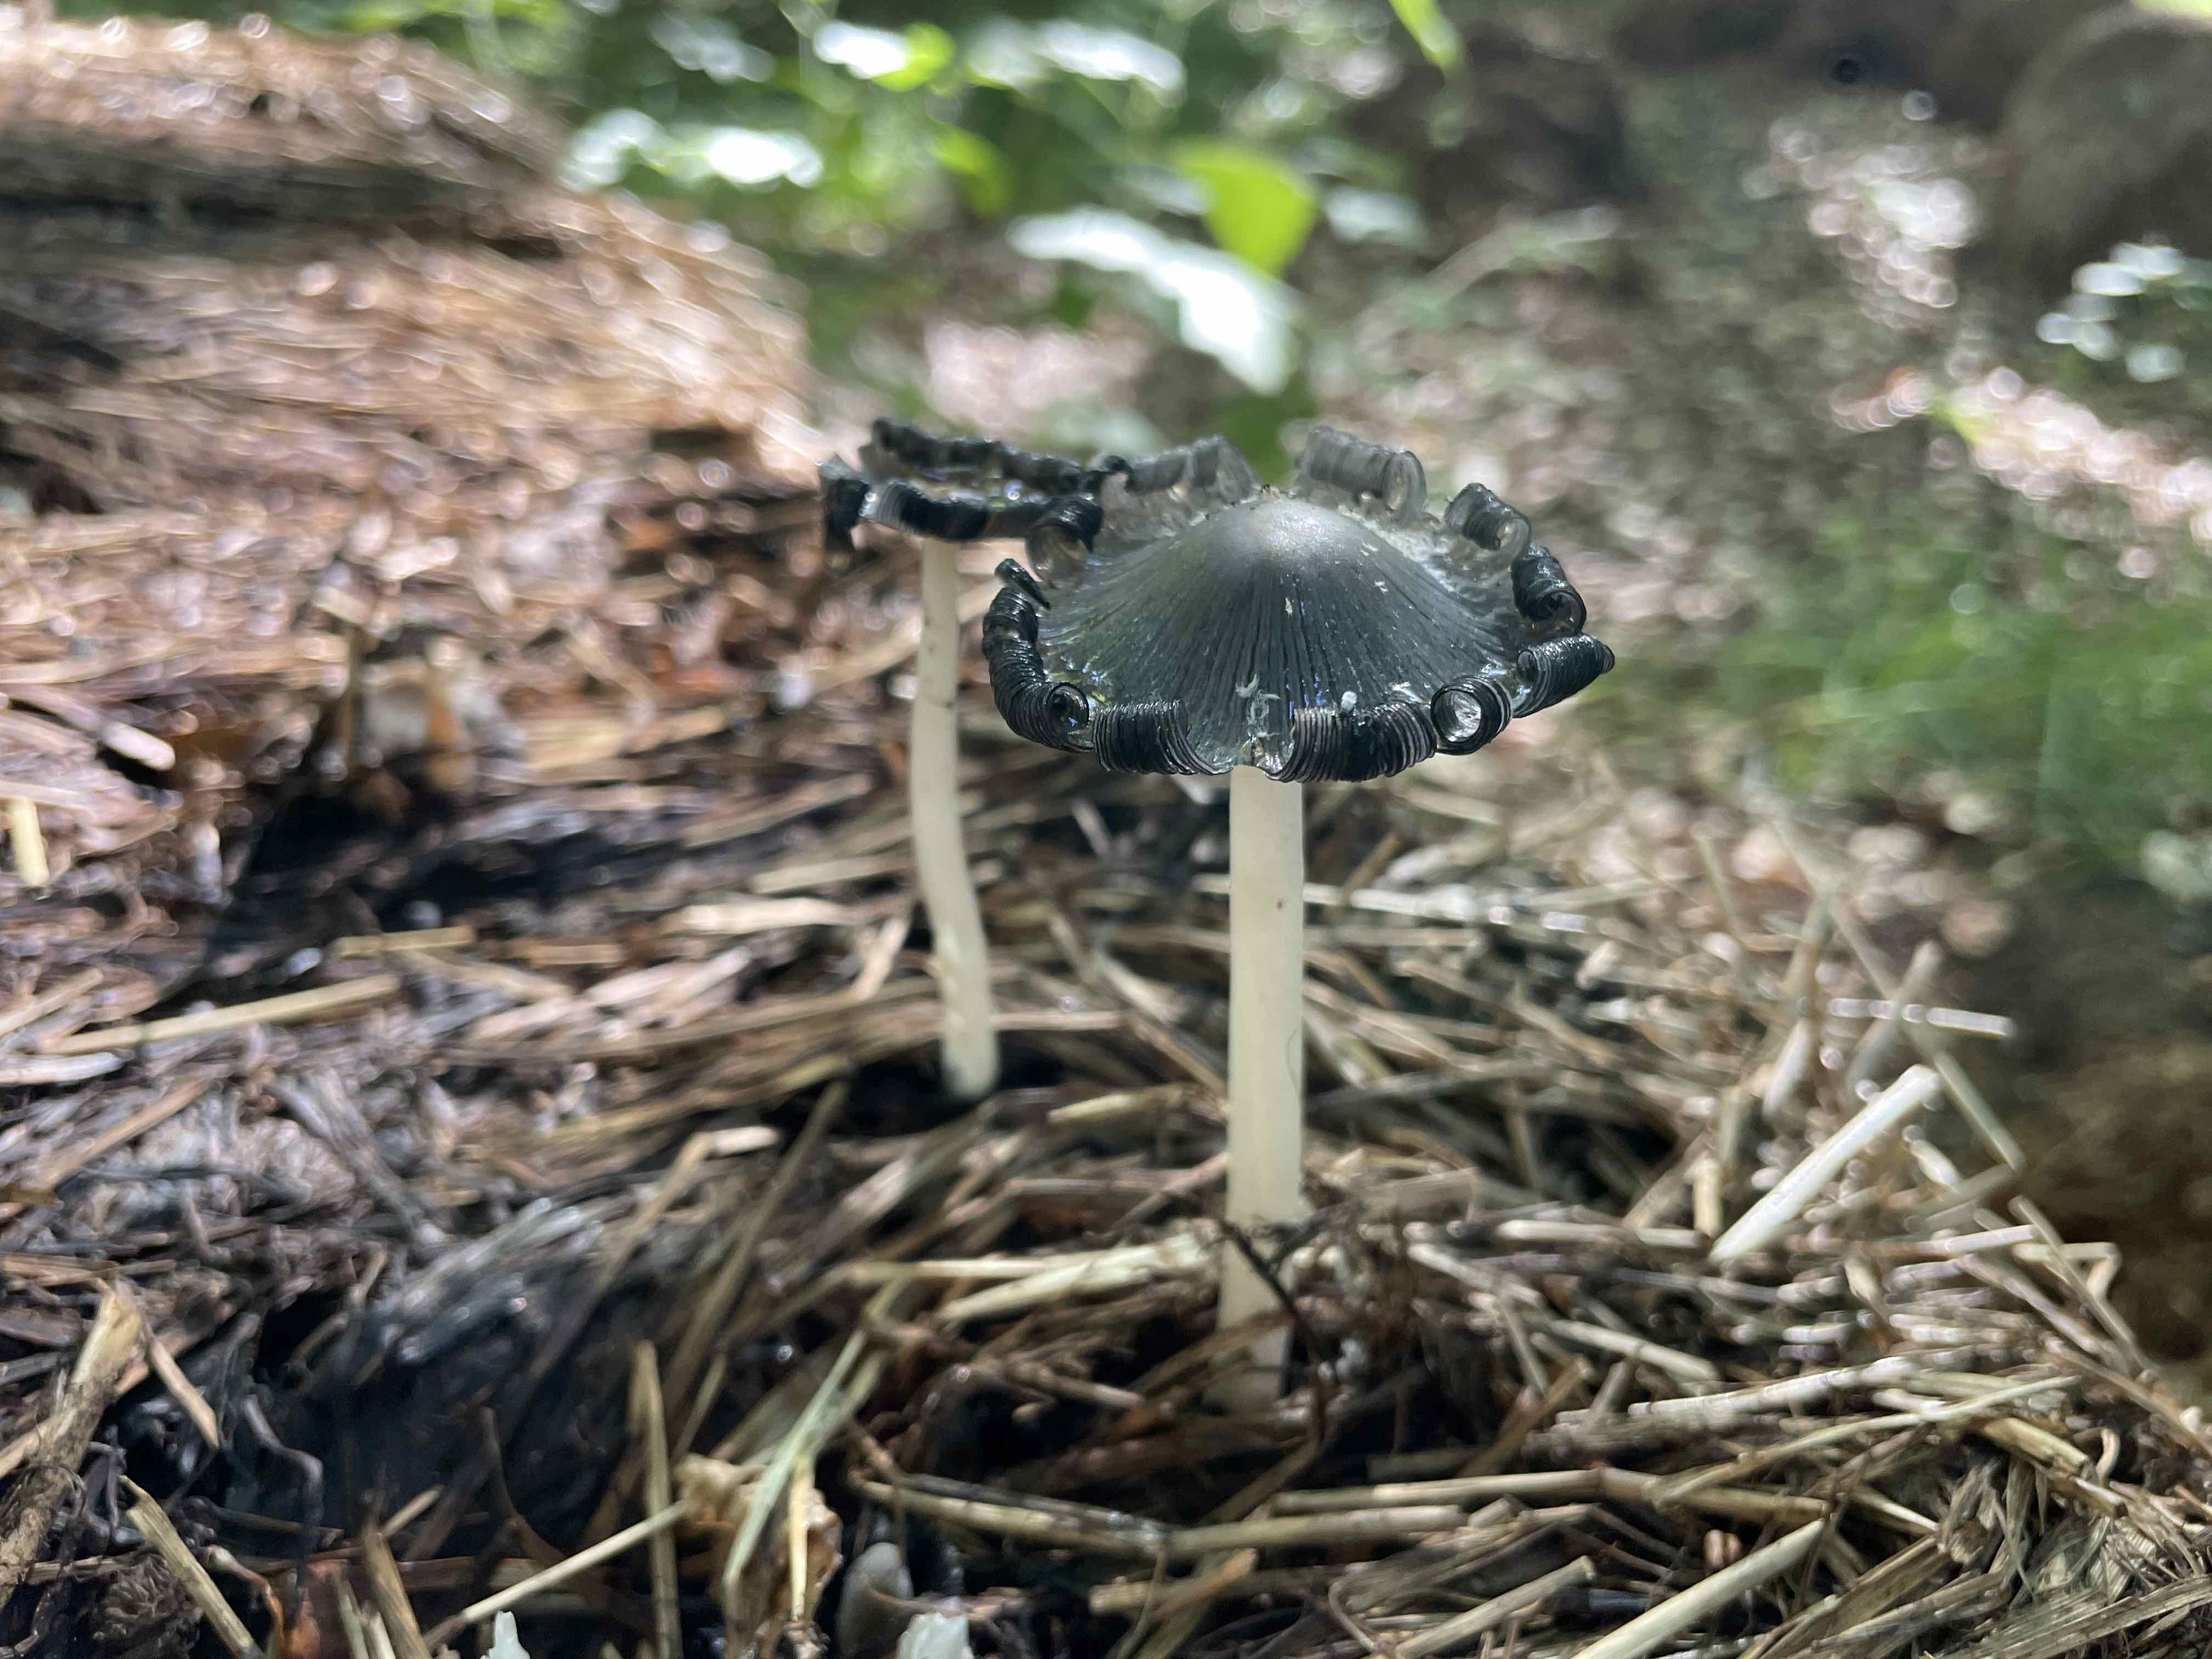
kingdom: Fungi
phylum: Basidiomycota
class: Agaricomycetes
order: Agaricales
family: Psathyrellaceae
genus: Coprinopsis
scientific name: Coprinopsis
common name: blækhat
